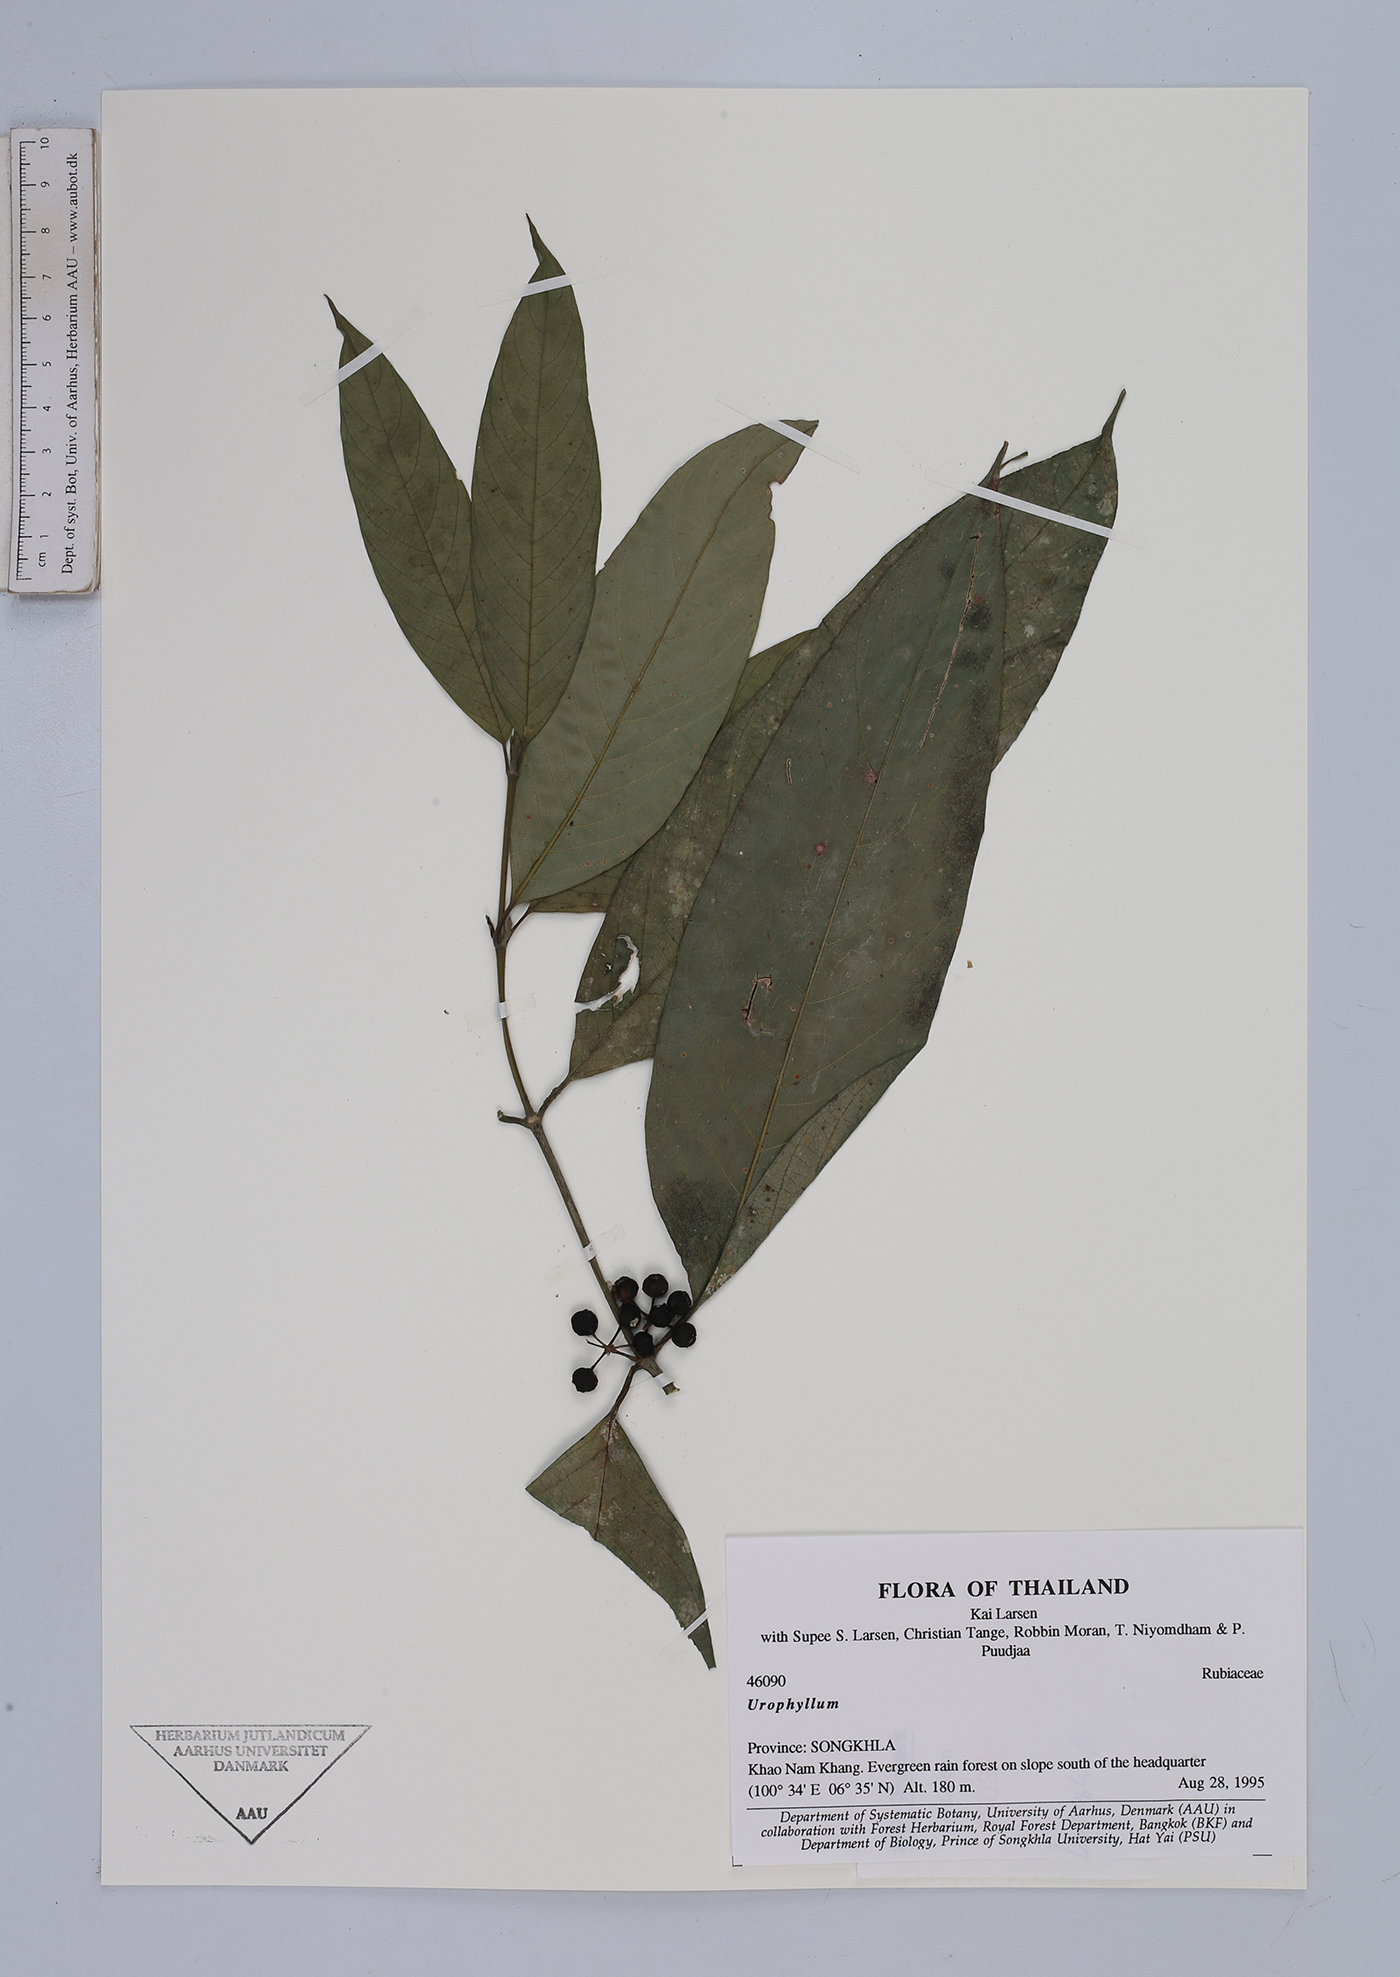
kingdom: Plantae
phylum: Tracheophyta
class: Magnoliopsida
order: Gentianales
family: Rubiaceae
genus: Urophyllum
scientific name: Urophyllum
